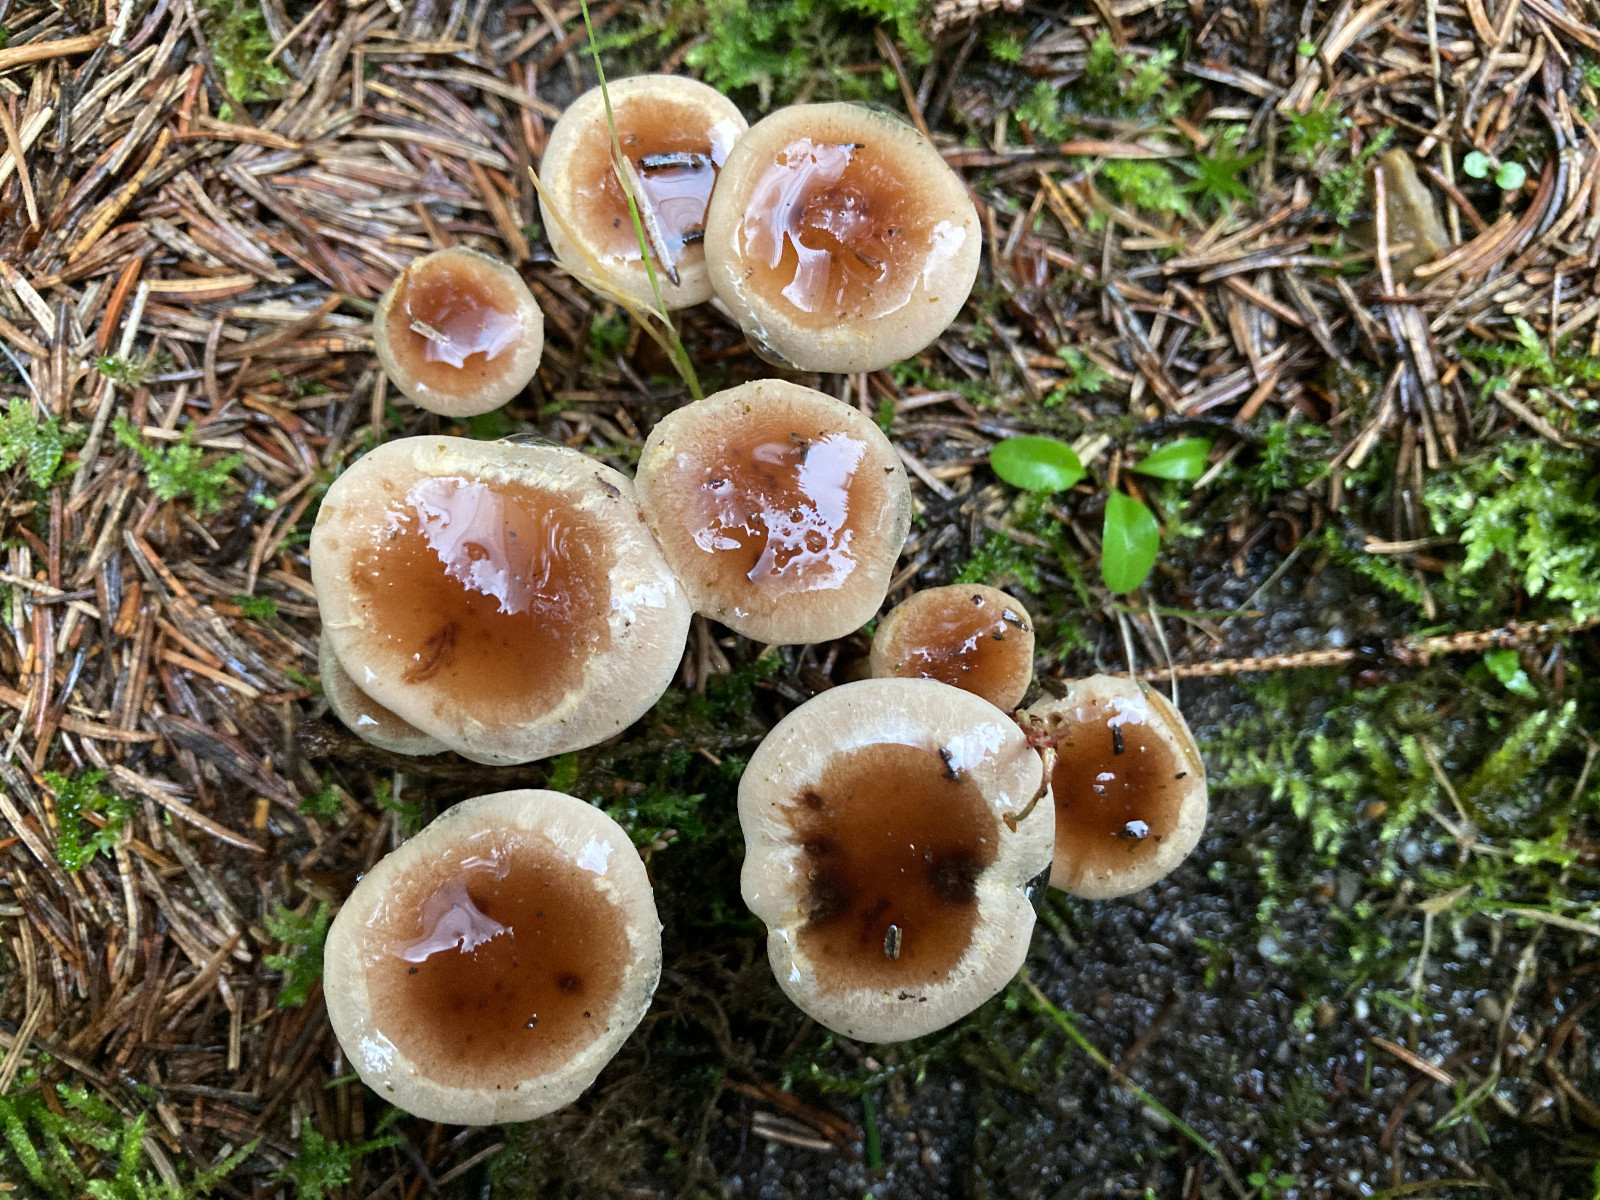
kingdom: Fungi
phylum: Basidiomycota
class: Agaricomycetes
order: Agaricales
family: Hymenogastraceae
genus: Hebeloma
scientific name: Hebeloma
